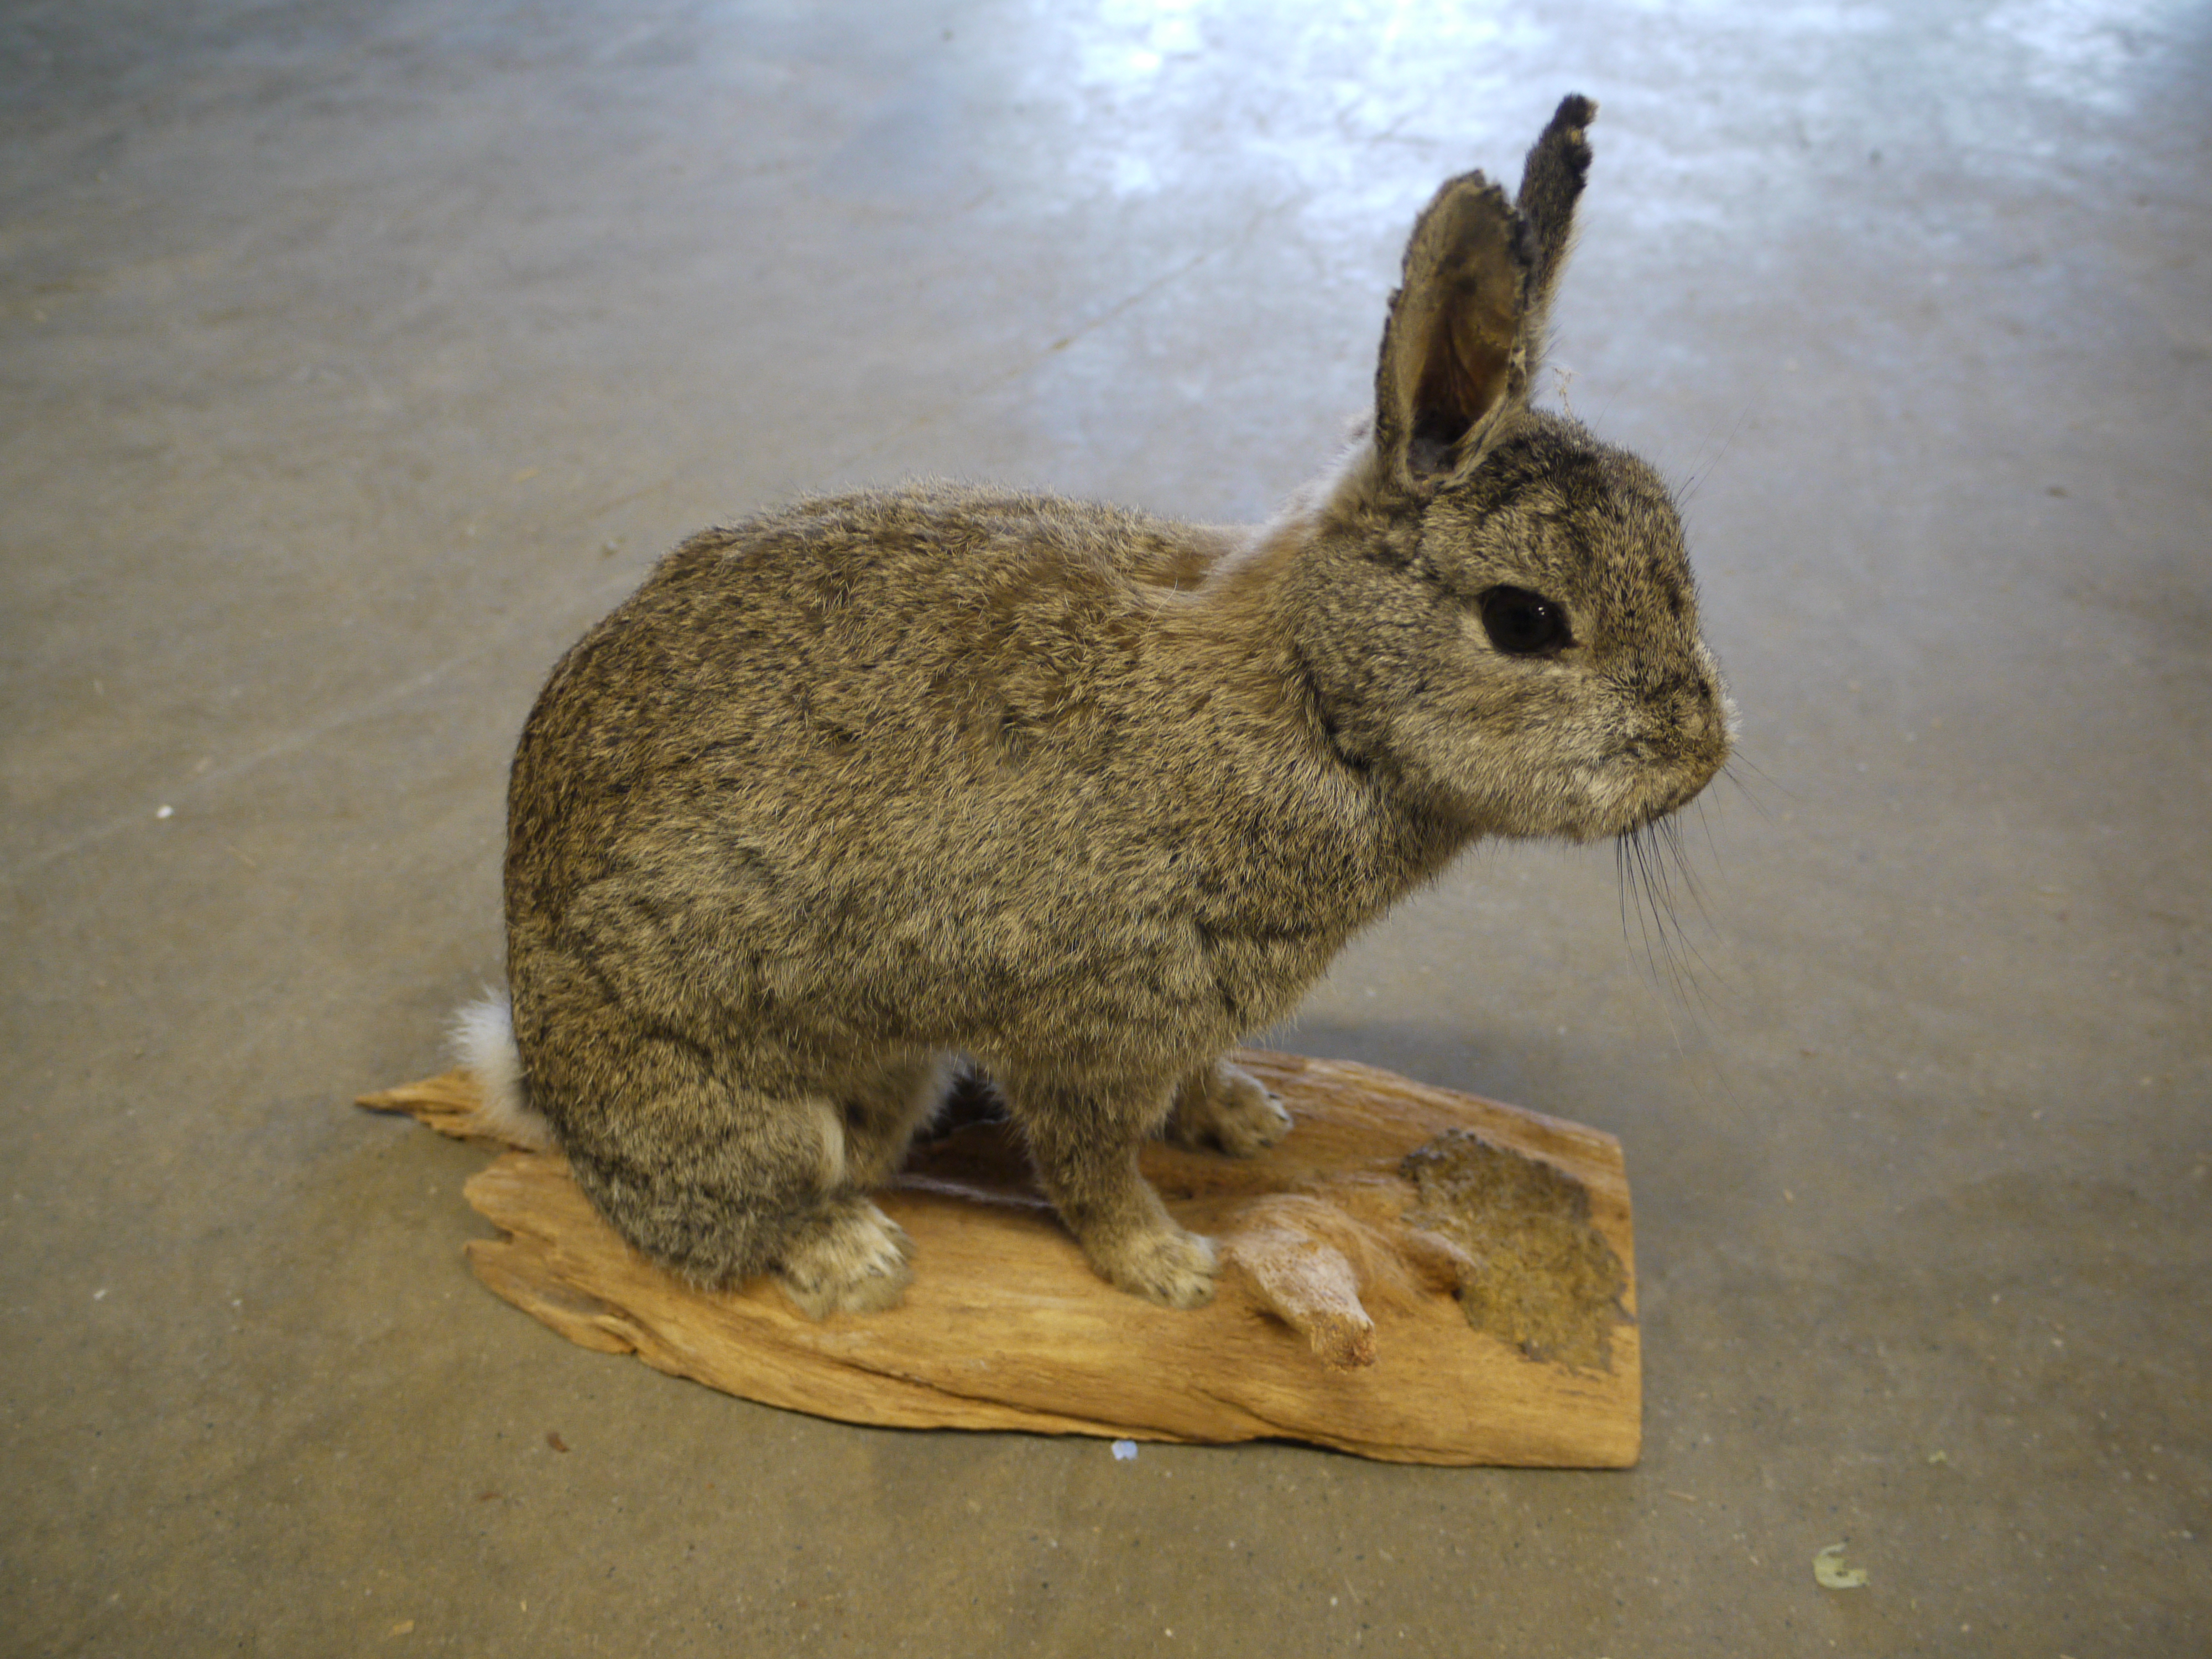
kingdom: Animalia
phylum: Chordata
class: Mammalia
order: Lagomorpha
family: Leporidae
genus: Oryctolagus
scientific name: Oryctolagus cuniculus
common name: European rabbit
